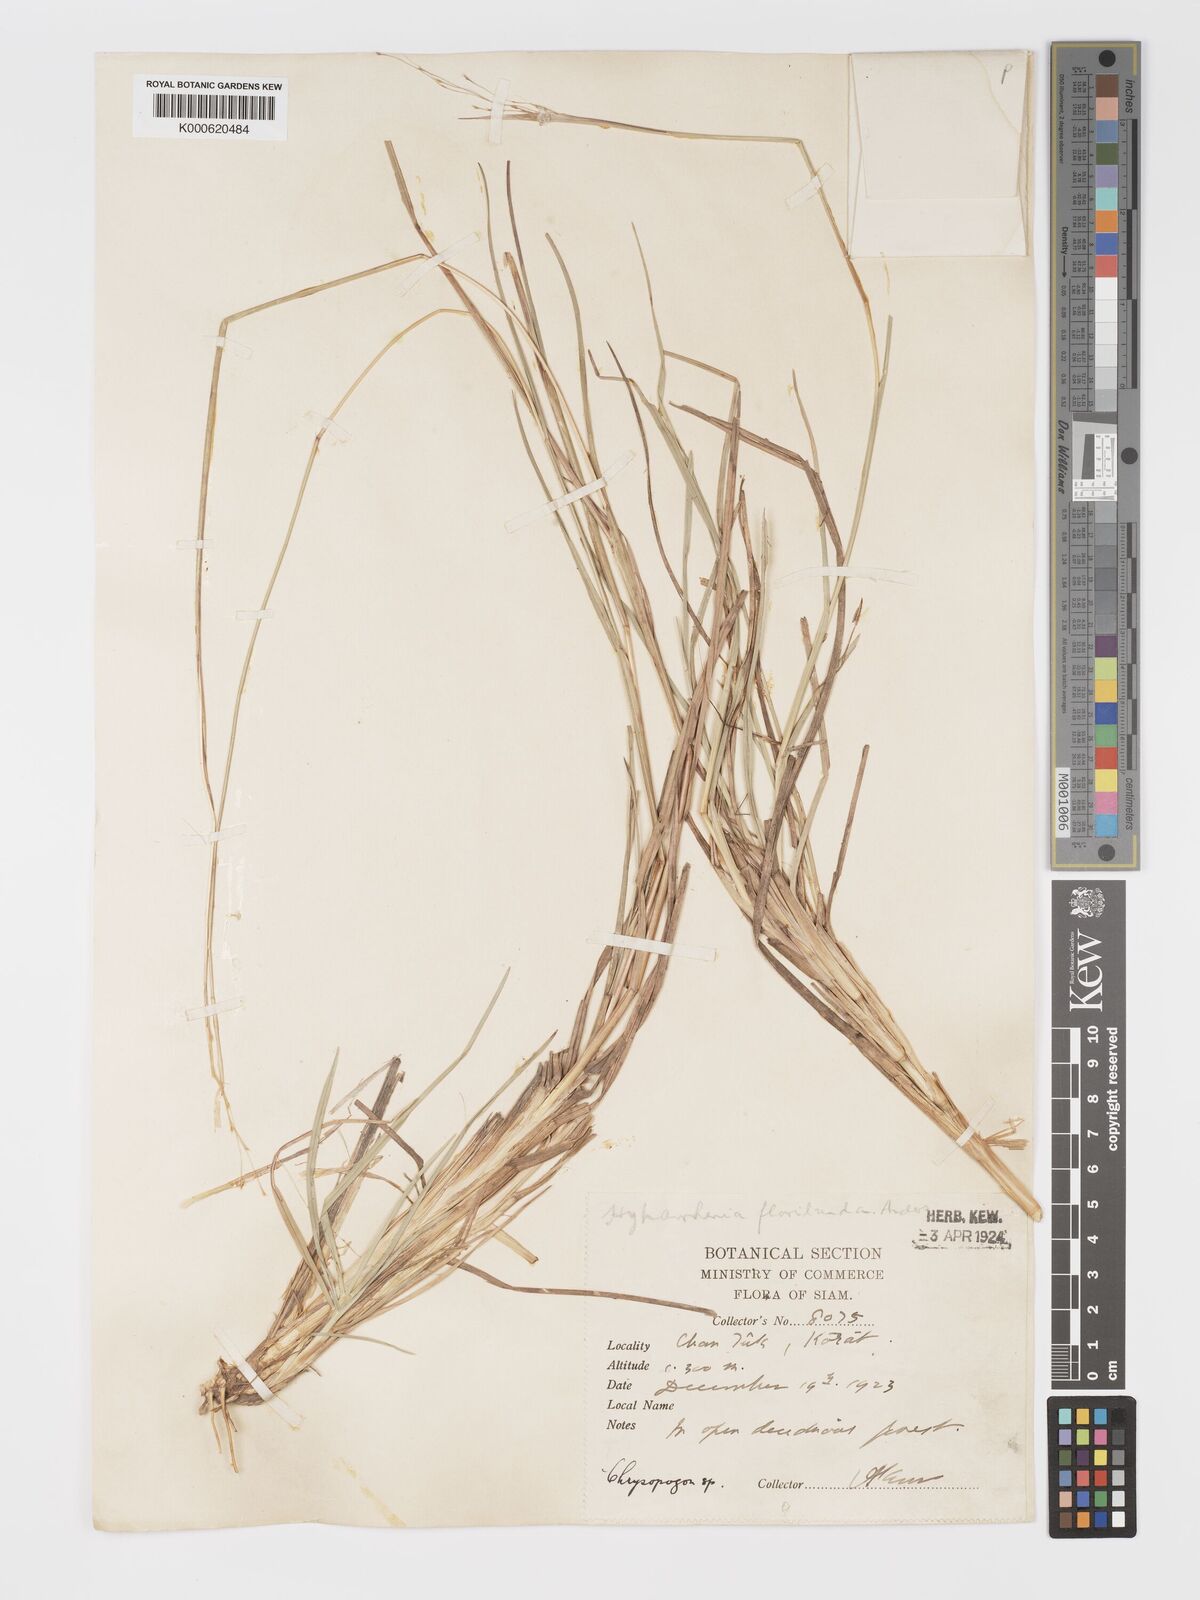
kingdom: Plantae
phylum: Tracheophyta
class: Liliopsida
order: Poales
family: Poaceae
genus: Chrysopogon
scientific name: Chrysopogon orientalis
